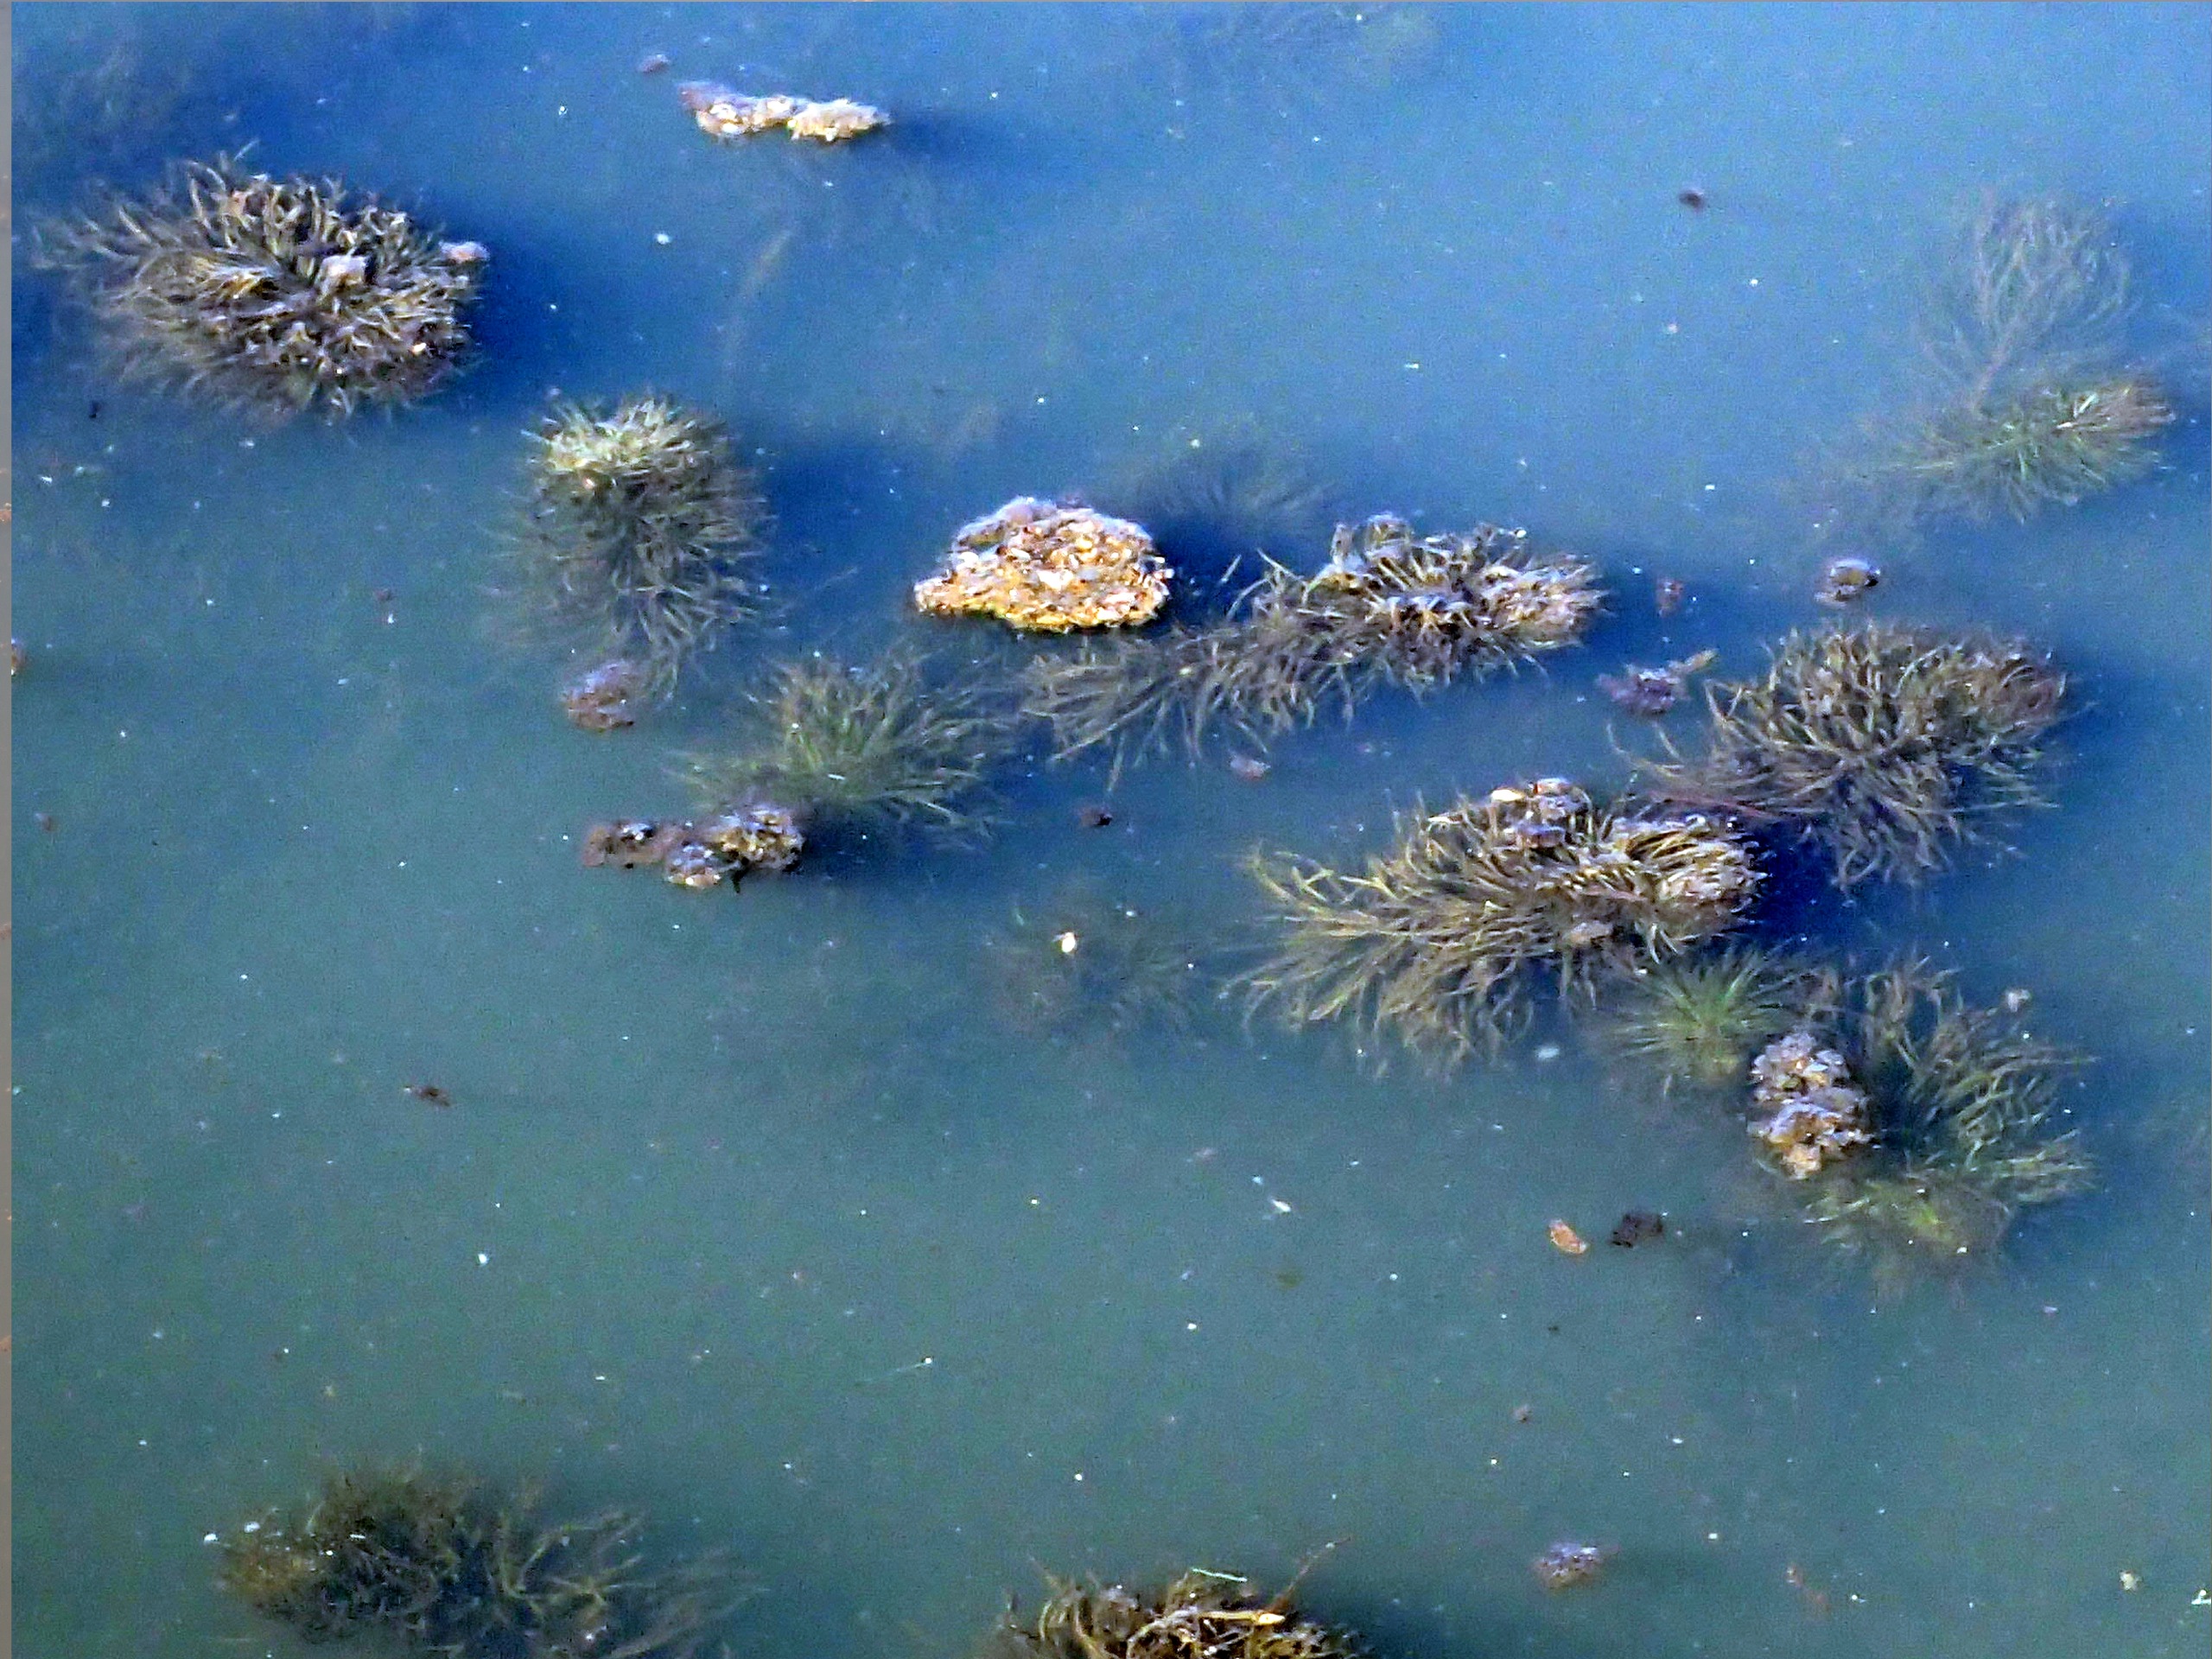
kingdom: Plantae
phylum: Tracheophyta
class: Magnoliopsida
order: Lamiales
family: Plantaginaceae
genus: Hippuris
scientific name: Hippuris vulgaris
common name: Vandspir
